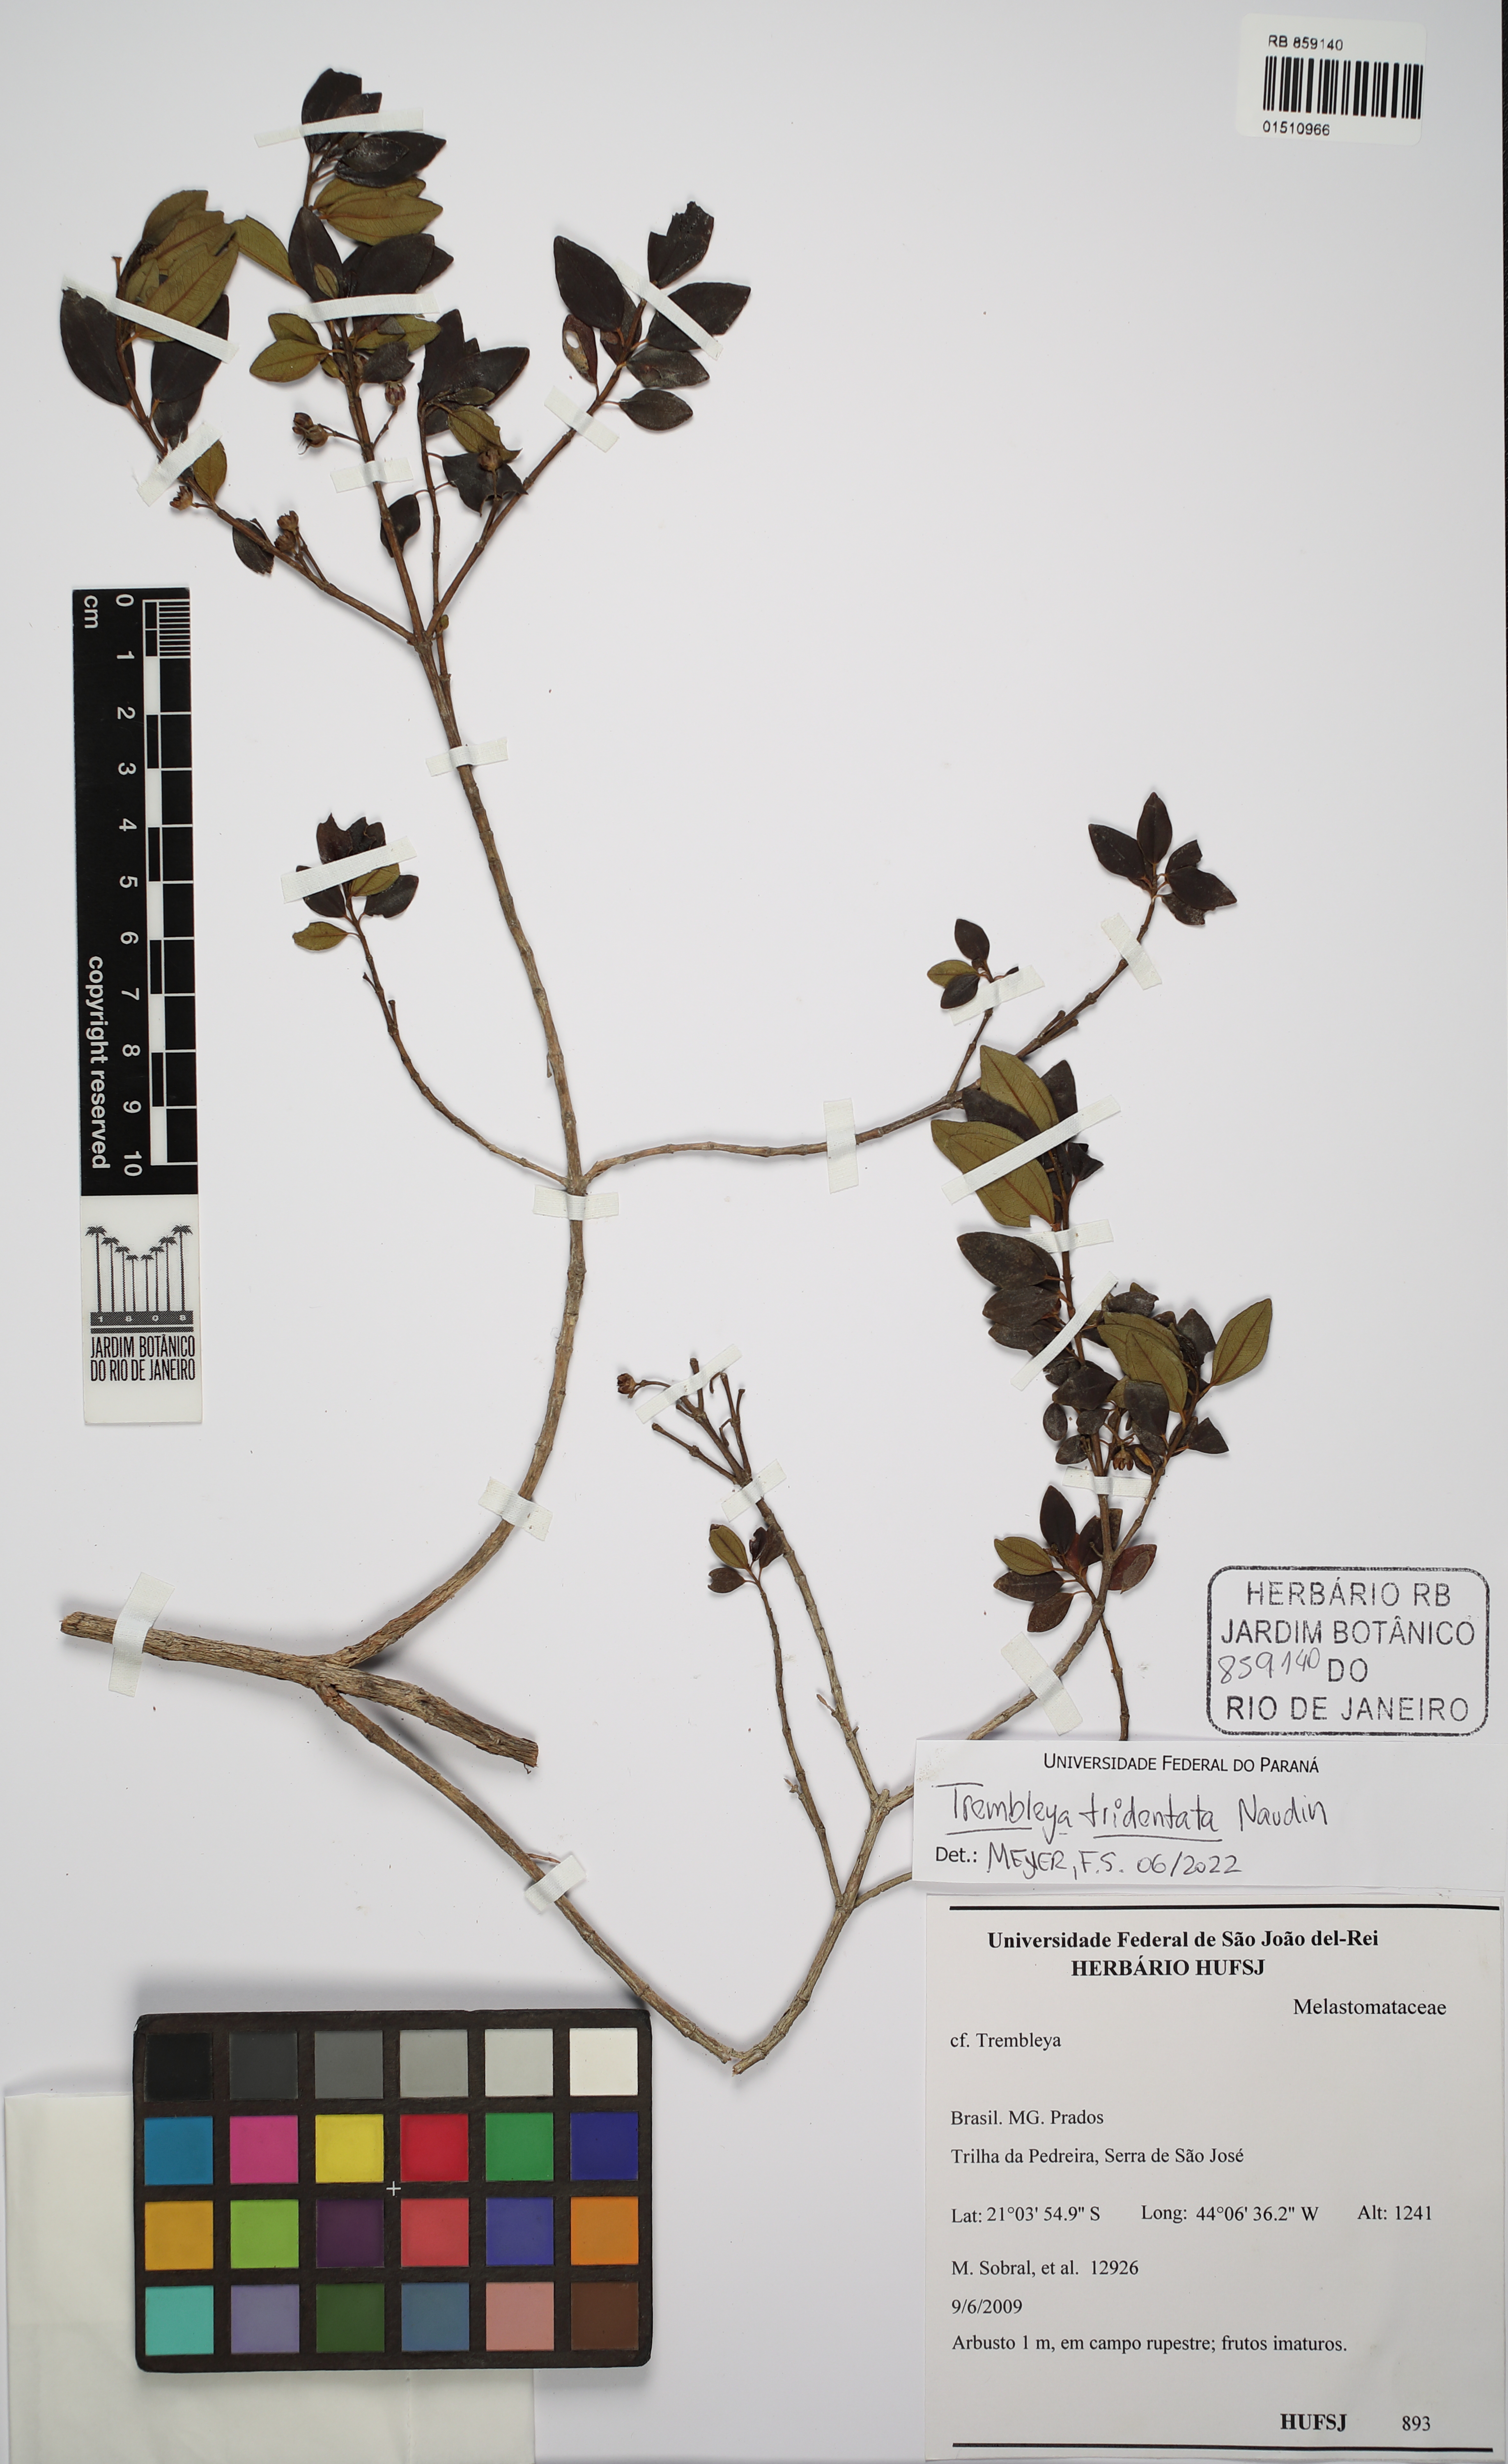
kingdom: Plantae
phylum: Tracheophyta
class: Magnoliopsida
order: Myrtales
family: Melastomataceae
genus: Microlicia
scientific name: Microlicia tridentata
